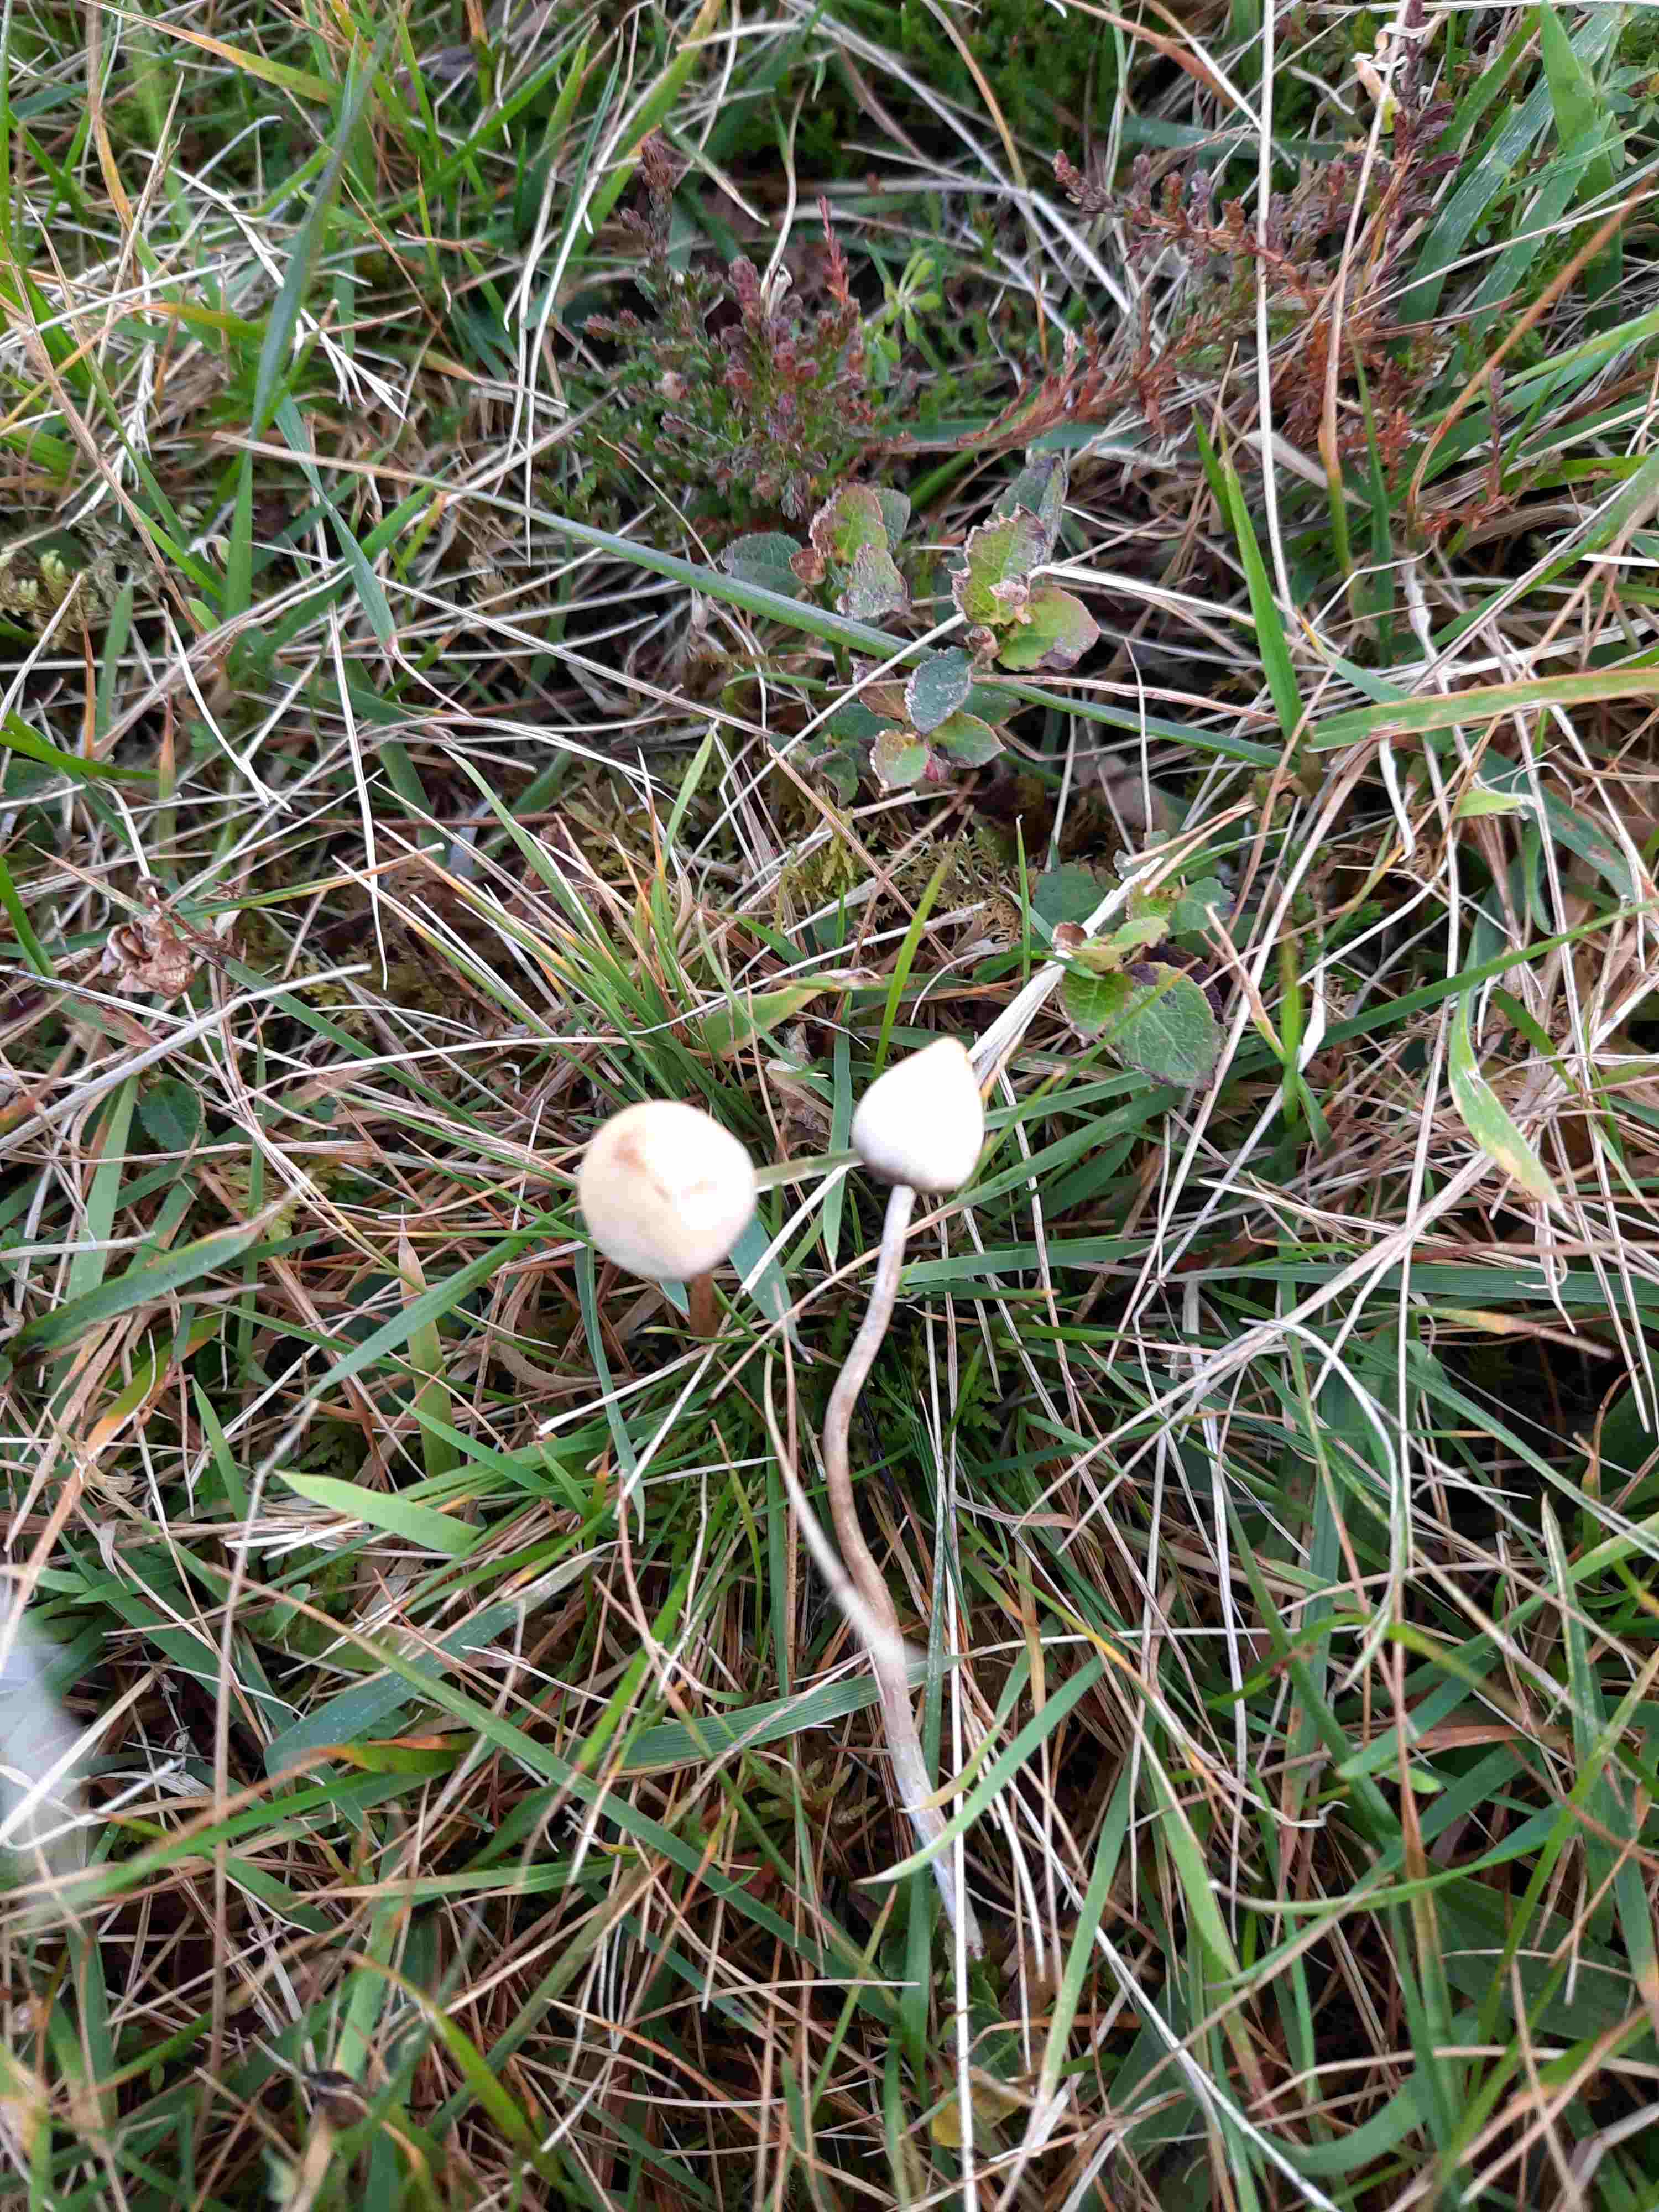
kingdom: Fungi
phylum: Basidiomycota
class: Agaricomycetes
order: Agaricales
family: Hymenogastraceae
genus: Psilocybe
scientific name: Psilocybe semilanceata
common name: spids nøgenhat
